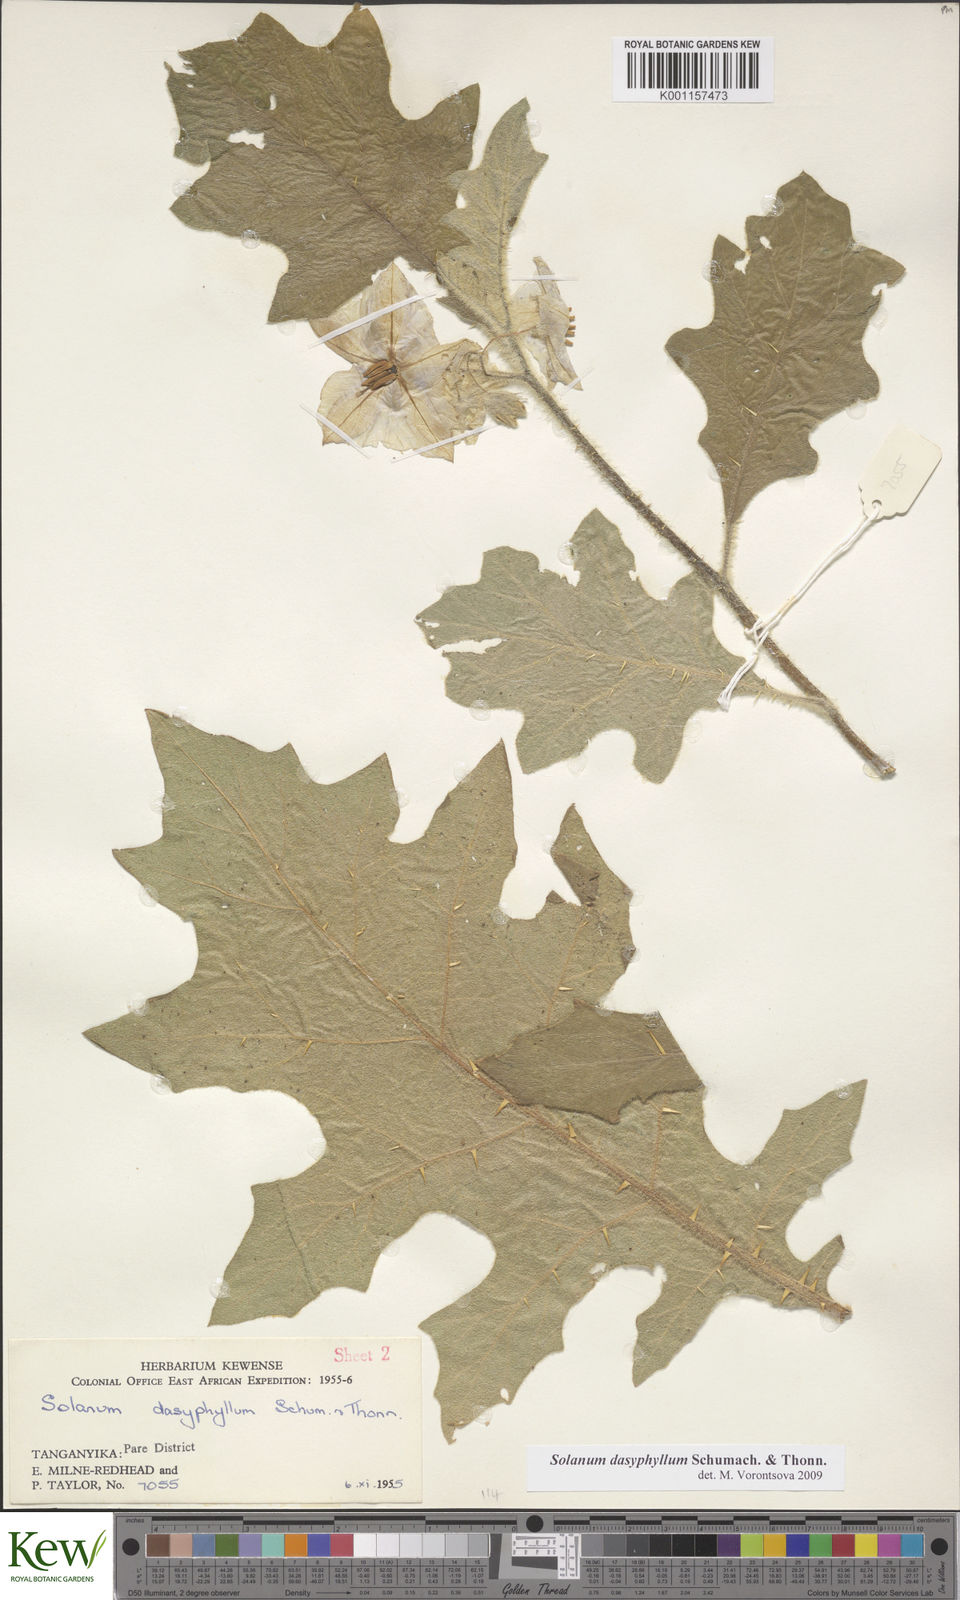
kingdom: Plantae
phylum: Tracheophyta
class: Magnoliopsida
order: Solanales
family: Solanaceae
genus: Solanum
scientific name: Solanum dasyphyllum
